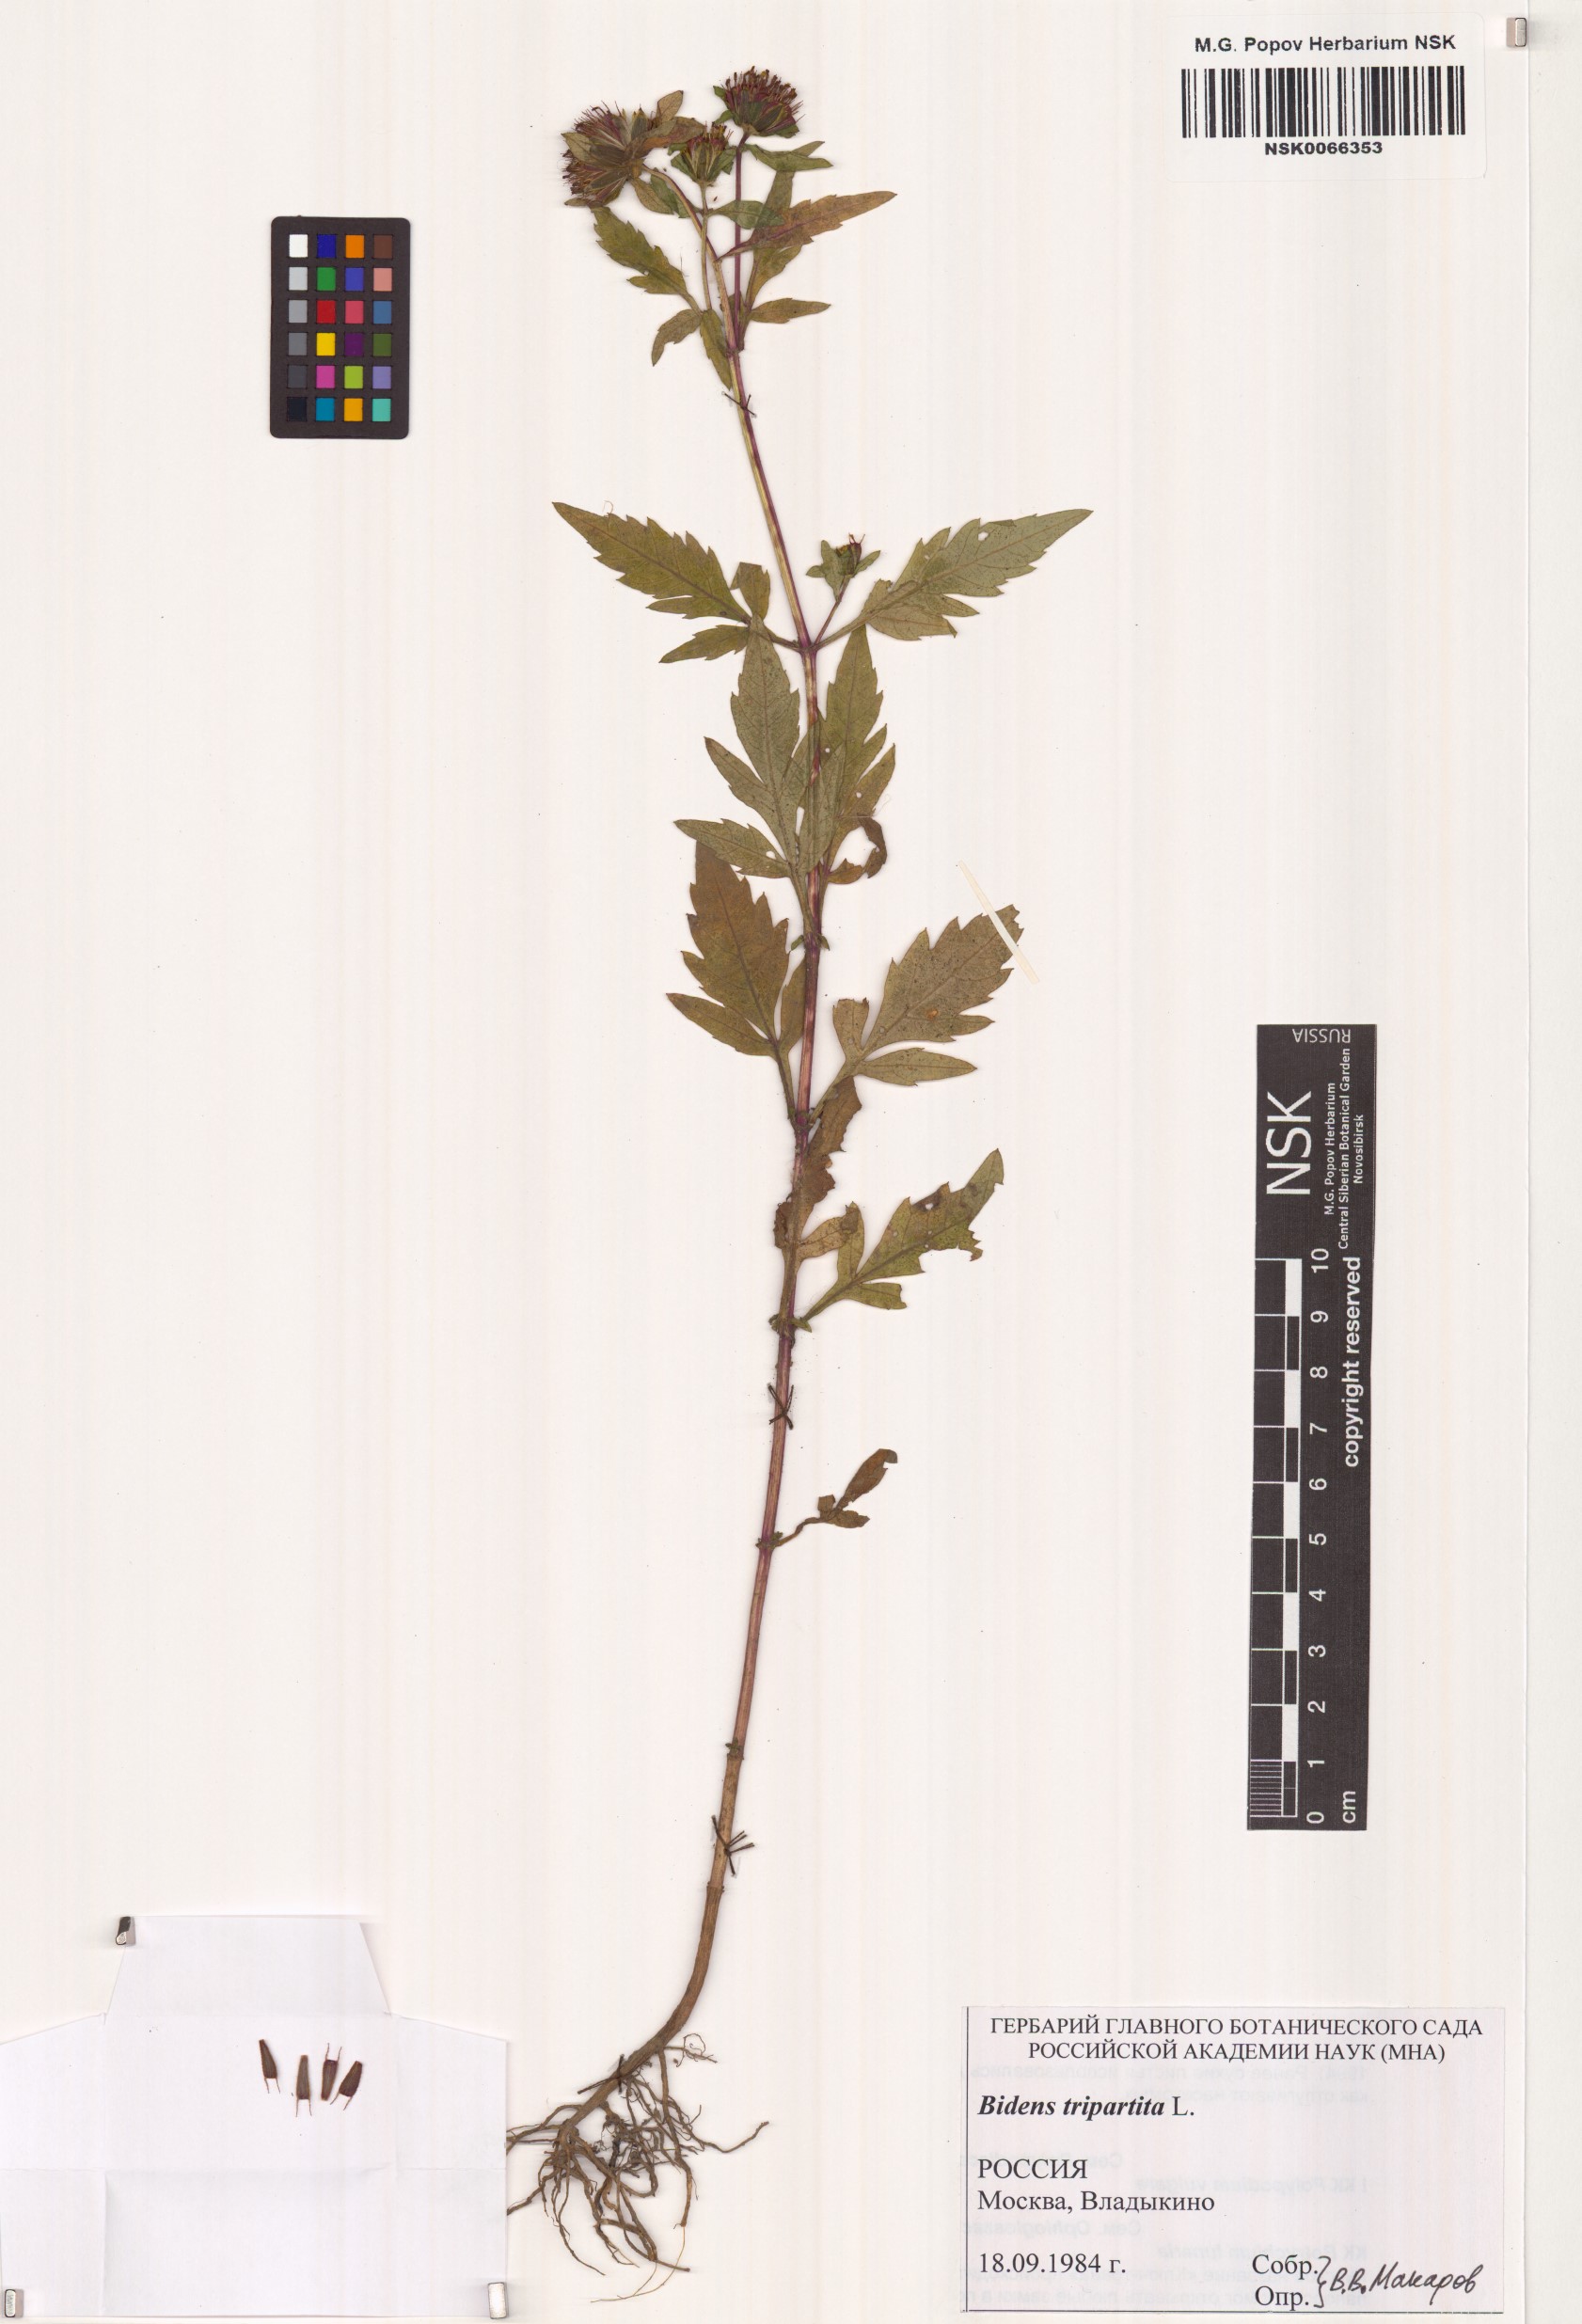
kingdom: Plantae
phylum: Tracheophyta
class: Magnoliopsida
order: Asterales
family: Asteraceae
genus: Bidens
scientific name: Bidens tripartita
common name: Trifid bur-marigold
